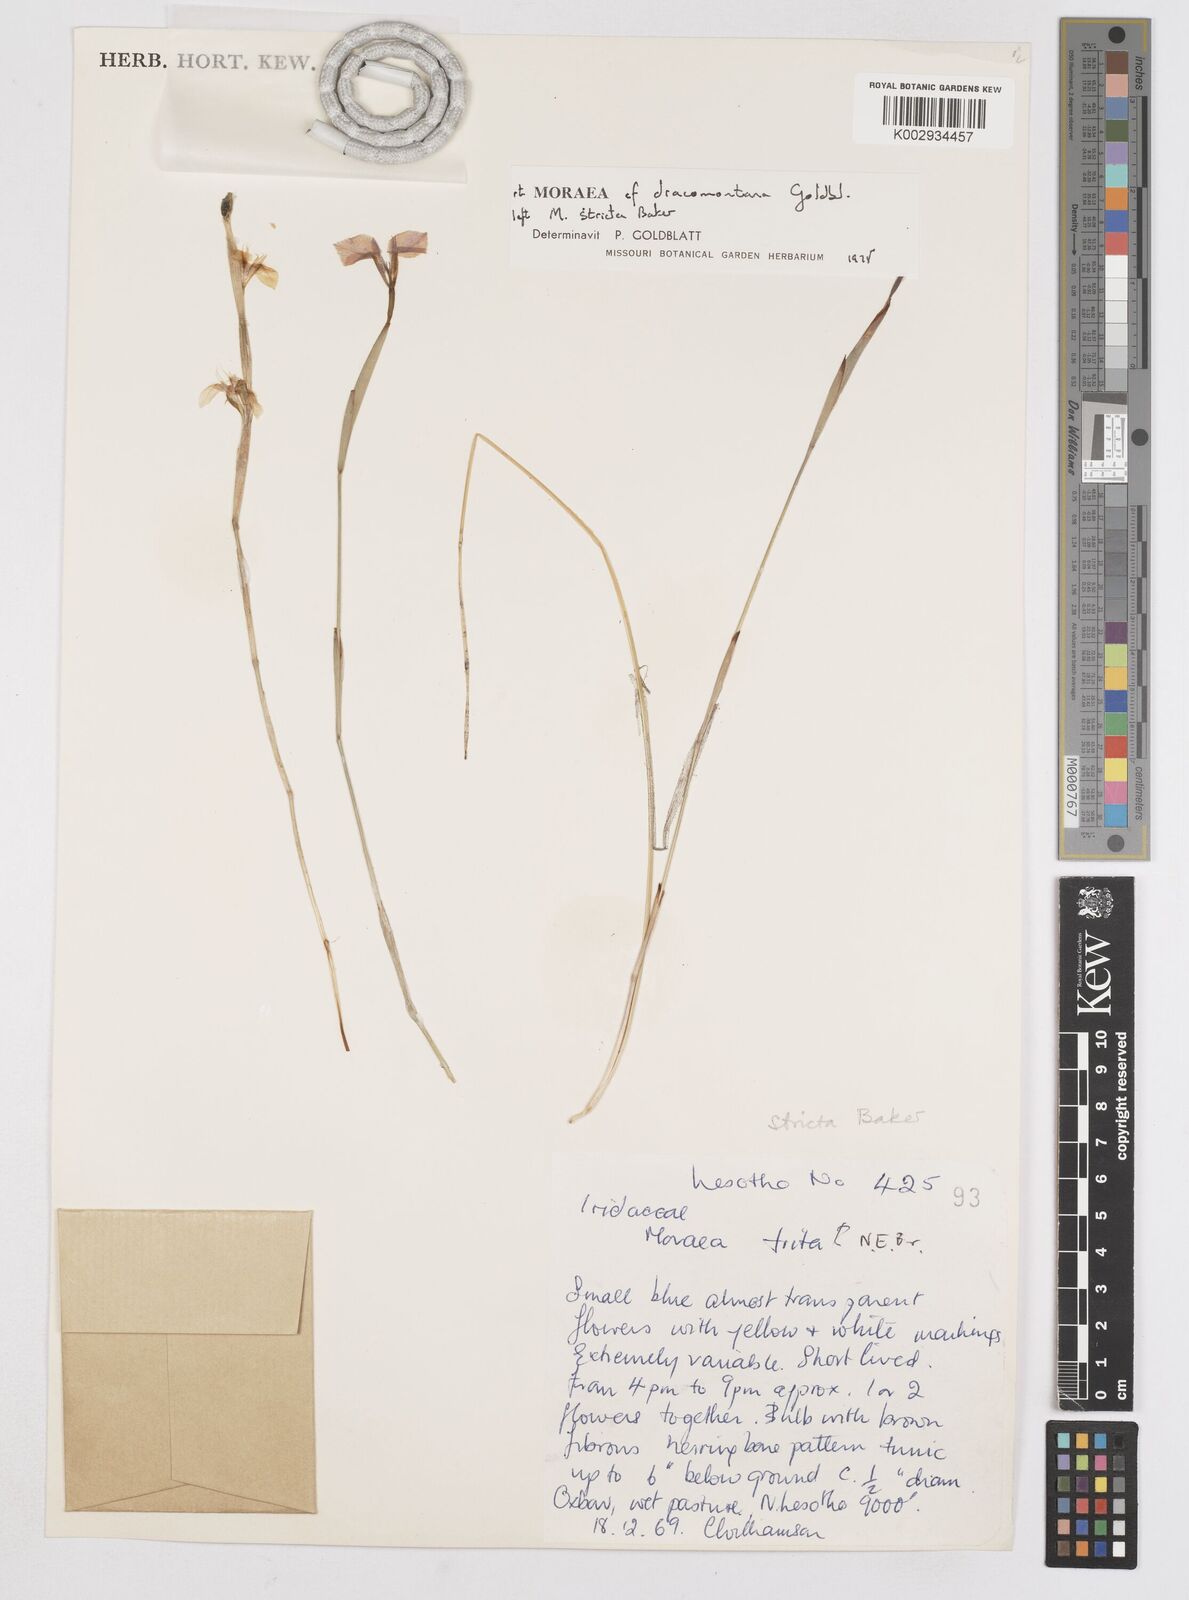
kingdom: Plantae
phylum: Tracheophyta
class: Liliopsida
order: Asparagales
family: Iridaceae
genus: Moraea
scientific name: Moraea stricta
